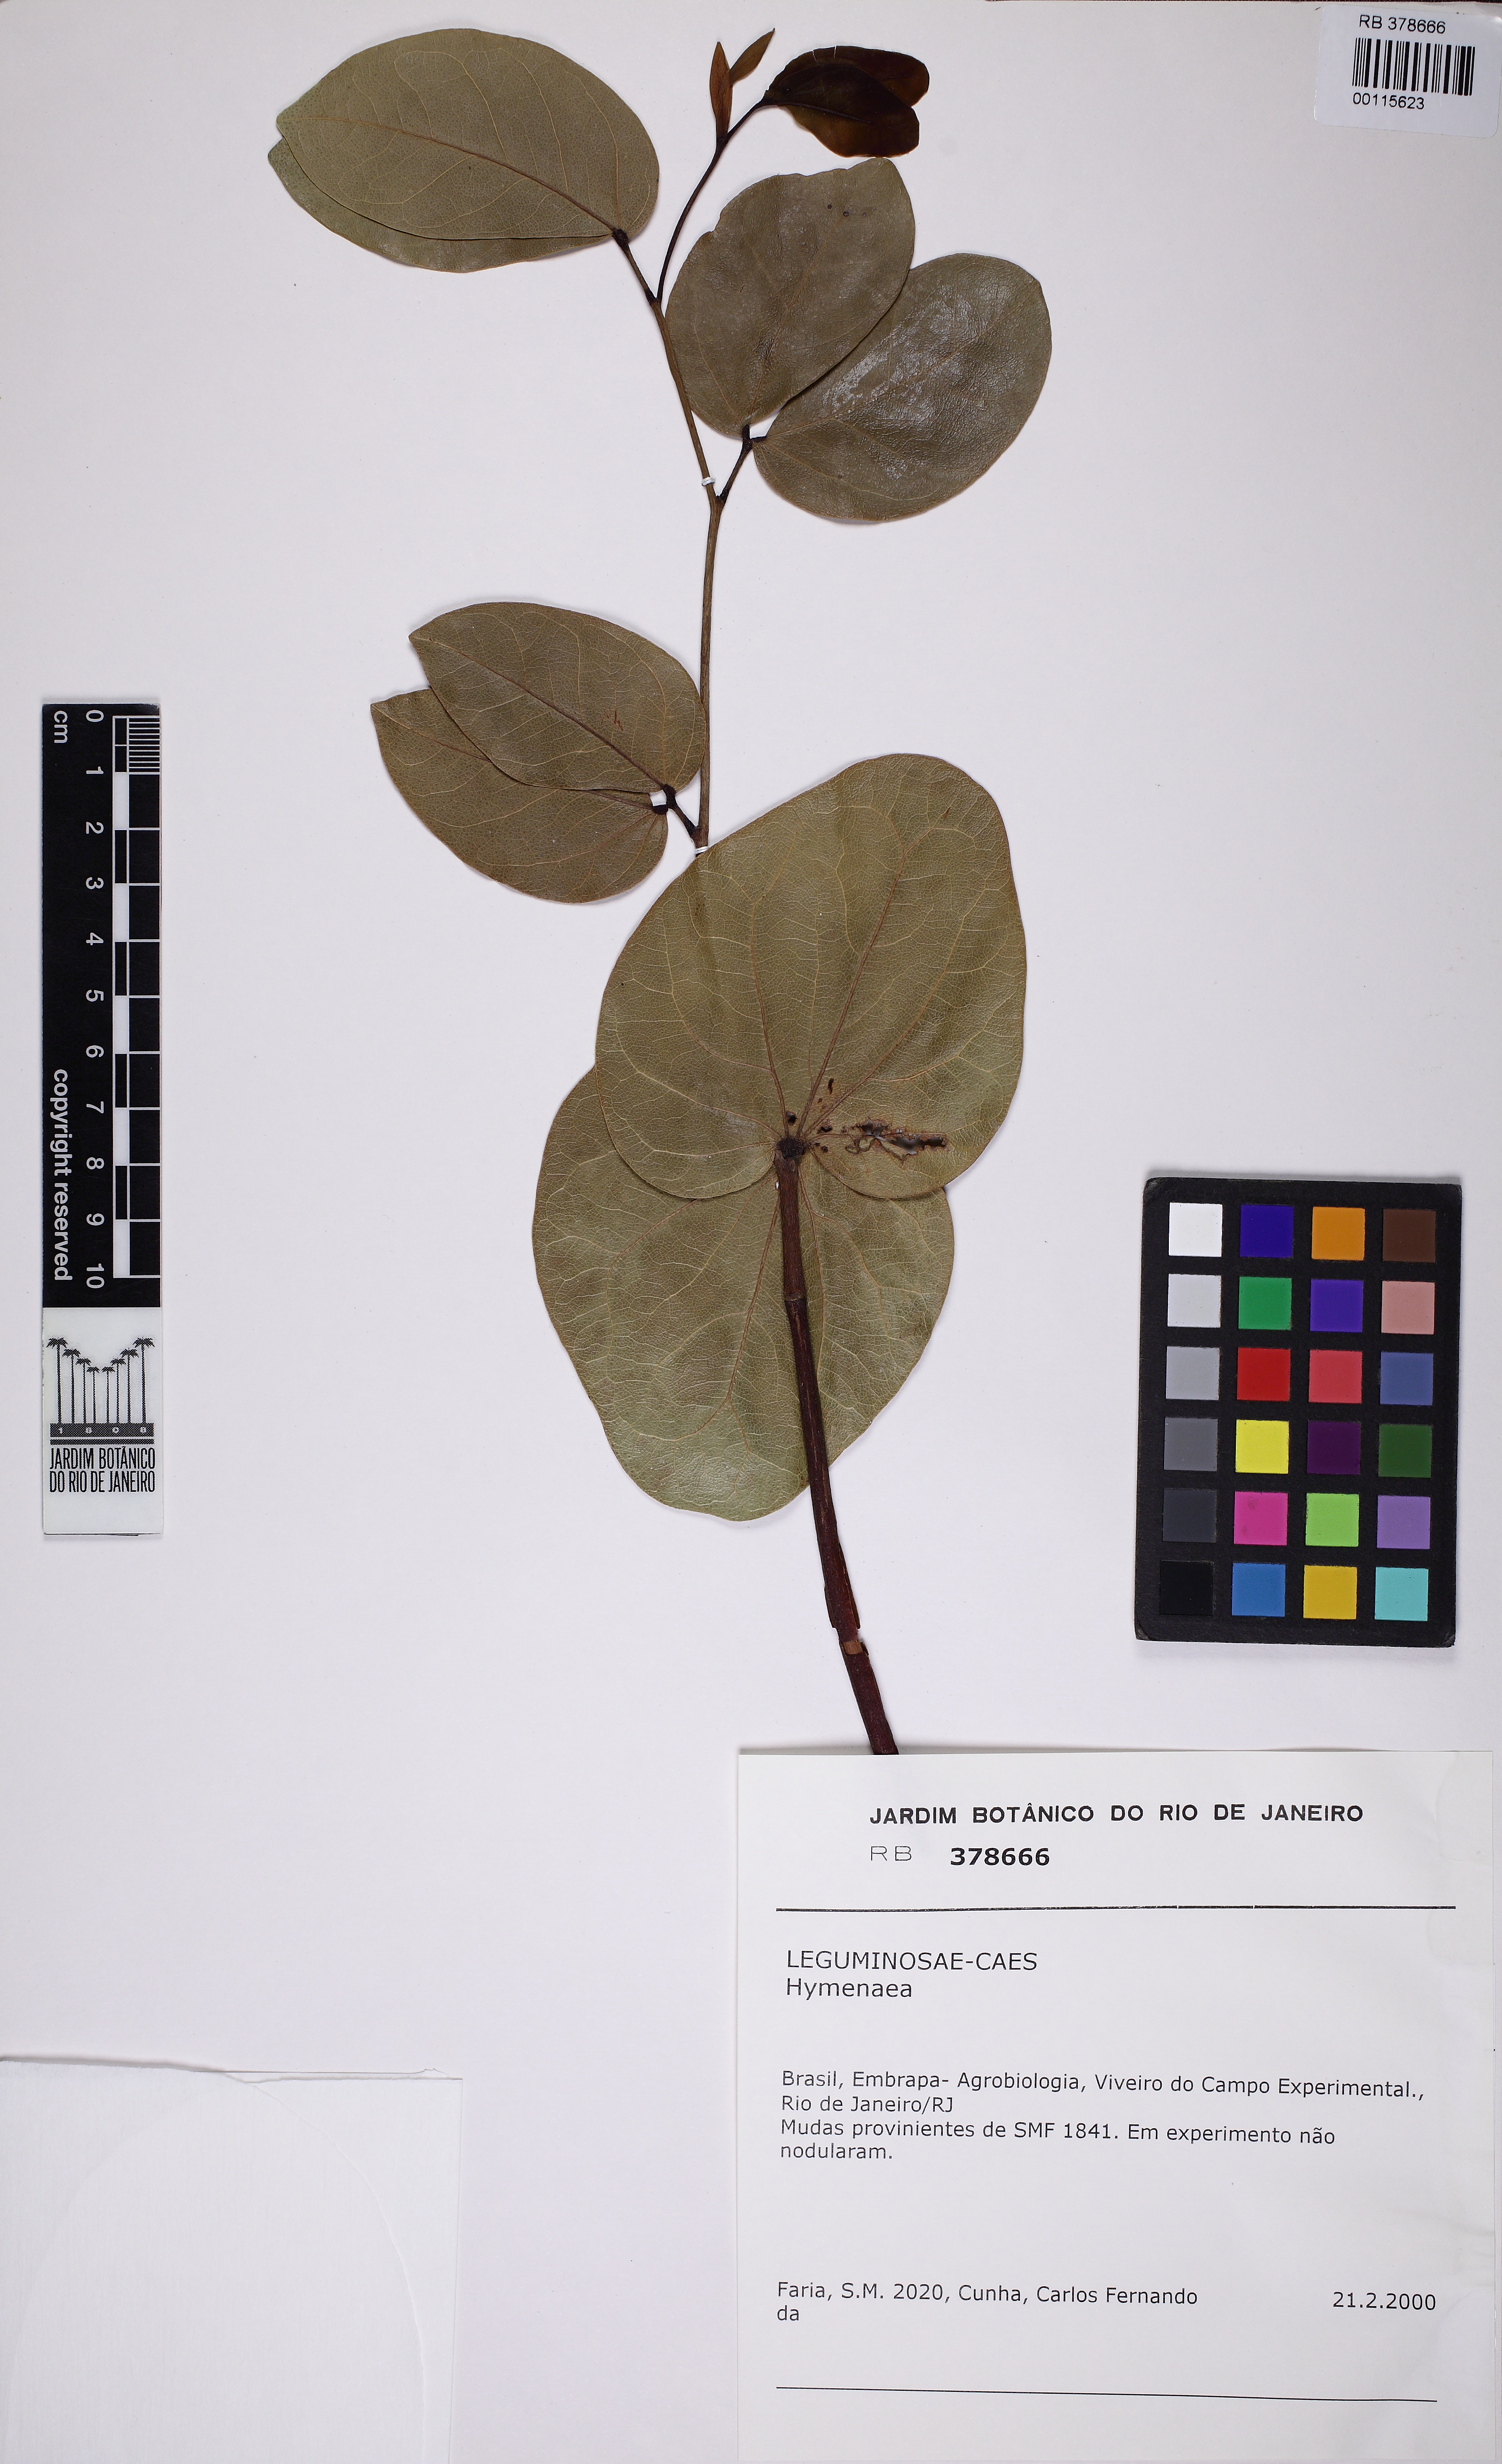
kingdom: Plantae
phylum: Tracheophyta
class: Magnoliopsida
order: Fabales
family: Fabaceae
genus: Hymenaea
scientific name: Hymenaea
